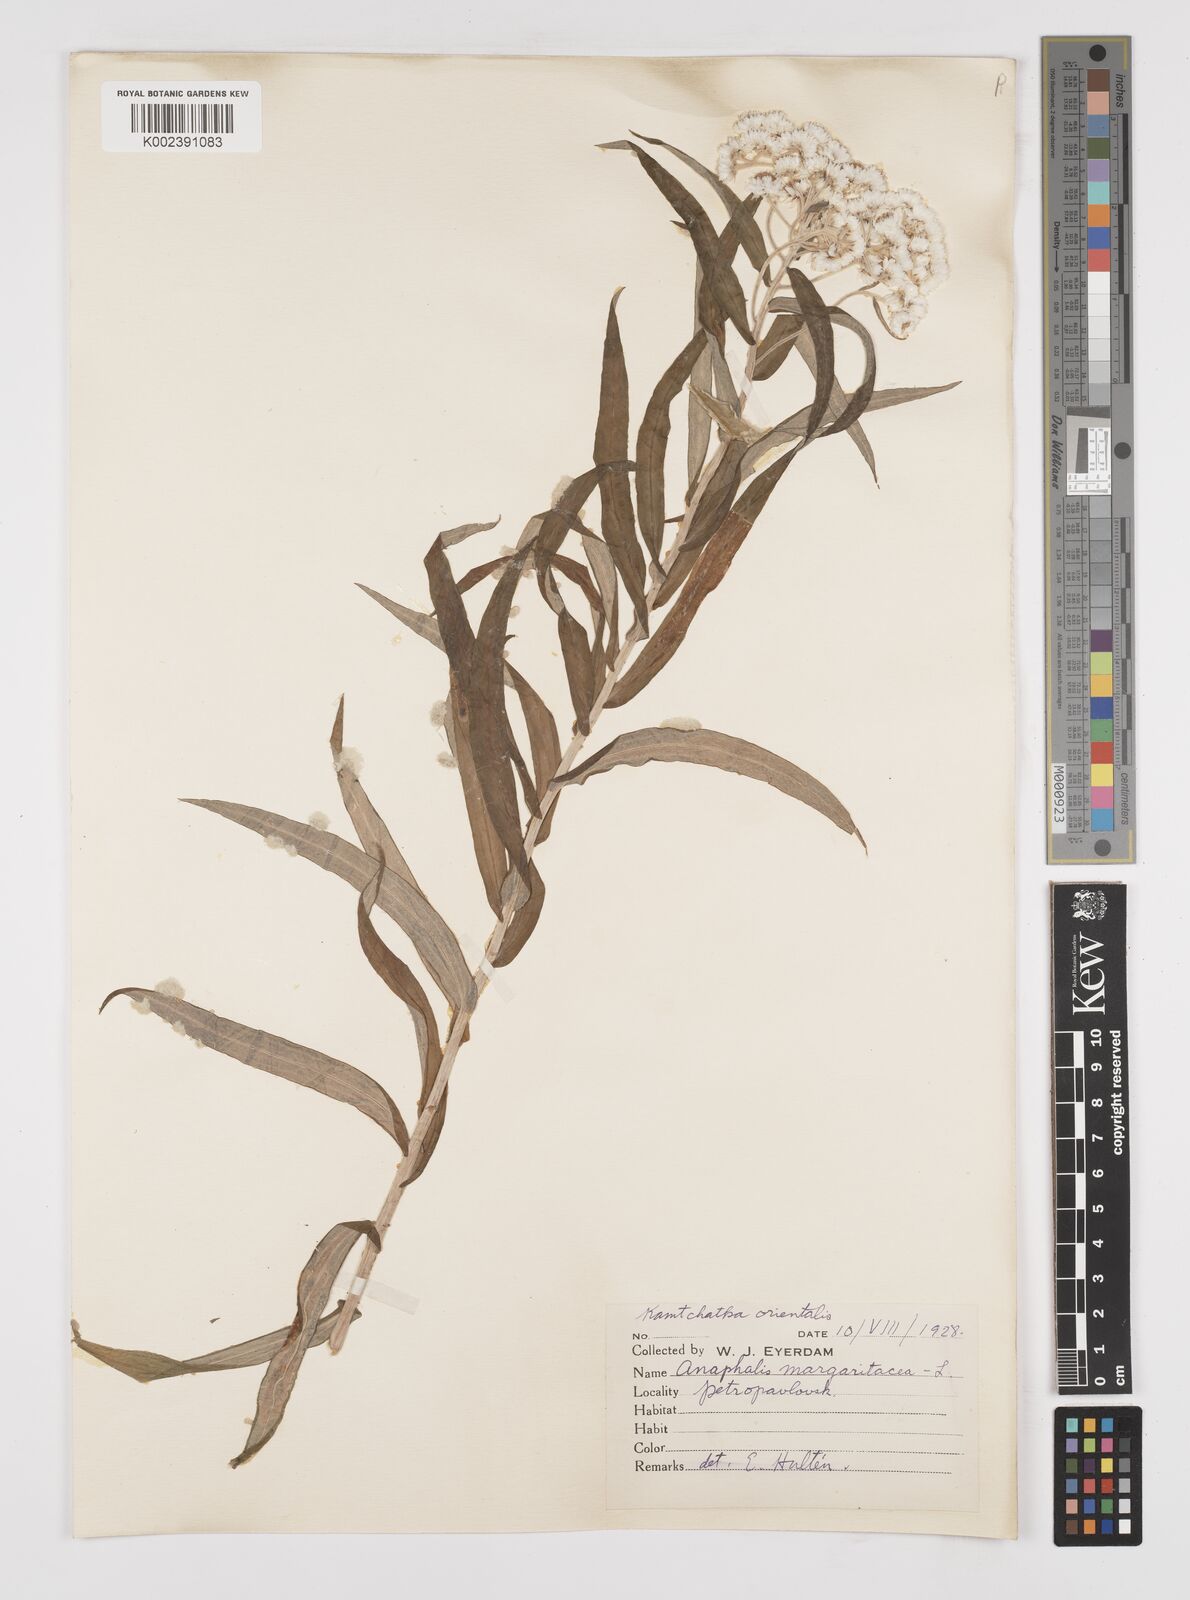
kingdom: Plantae
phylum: Tracheophyta
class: Magnoliopsida
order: Asterales
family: Asteraceae
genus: Anaphalis
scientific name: Anaphalis margaritacea
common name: Pearly everlasting
